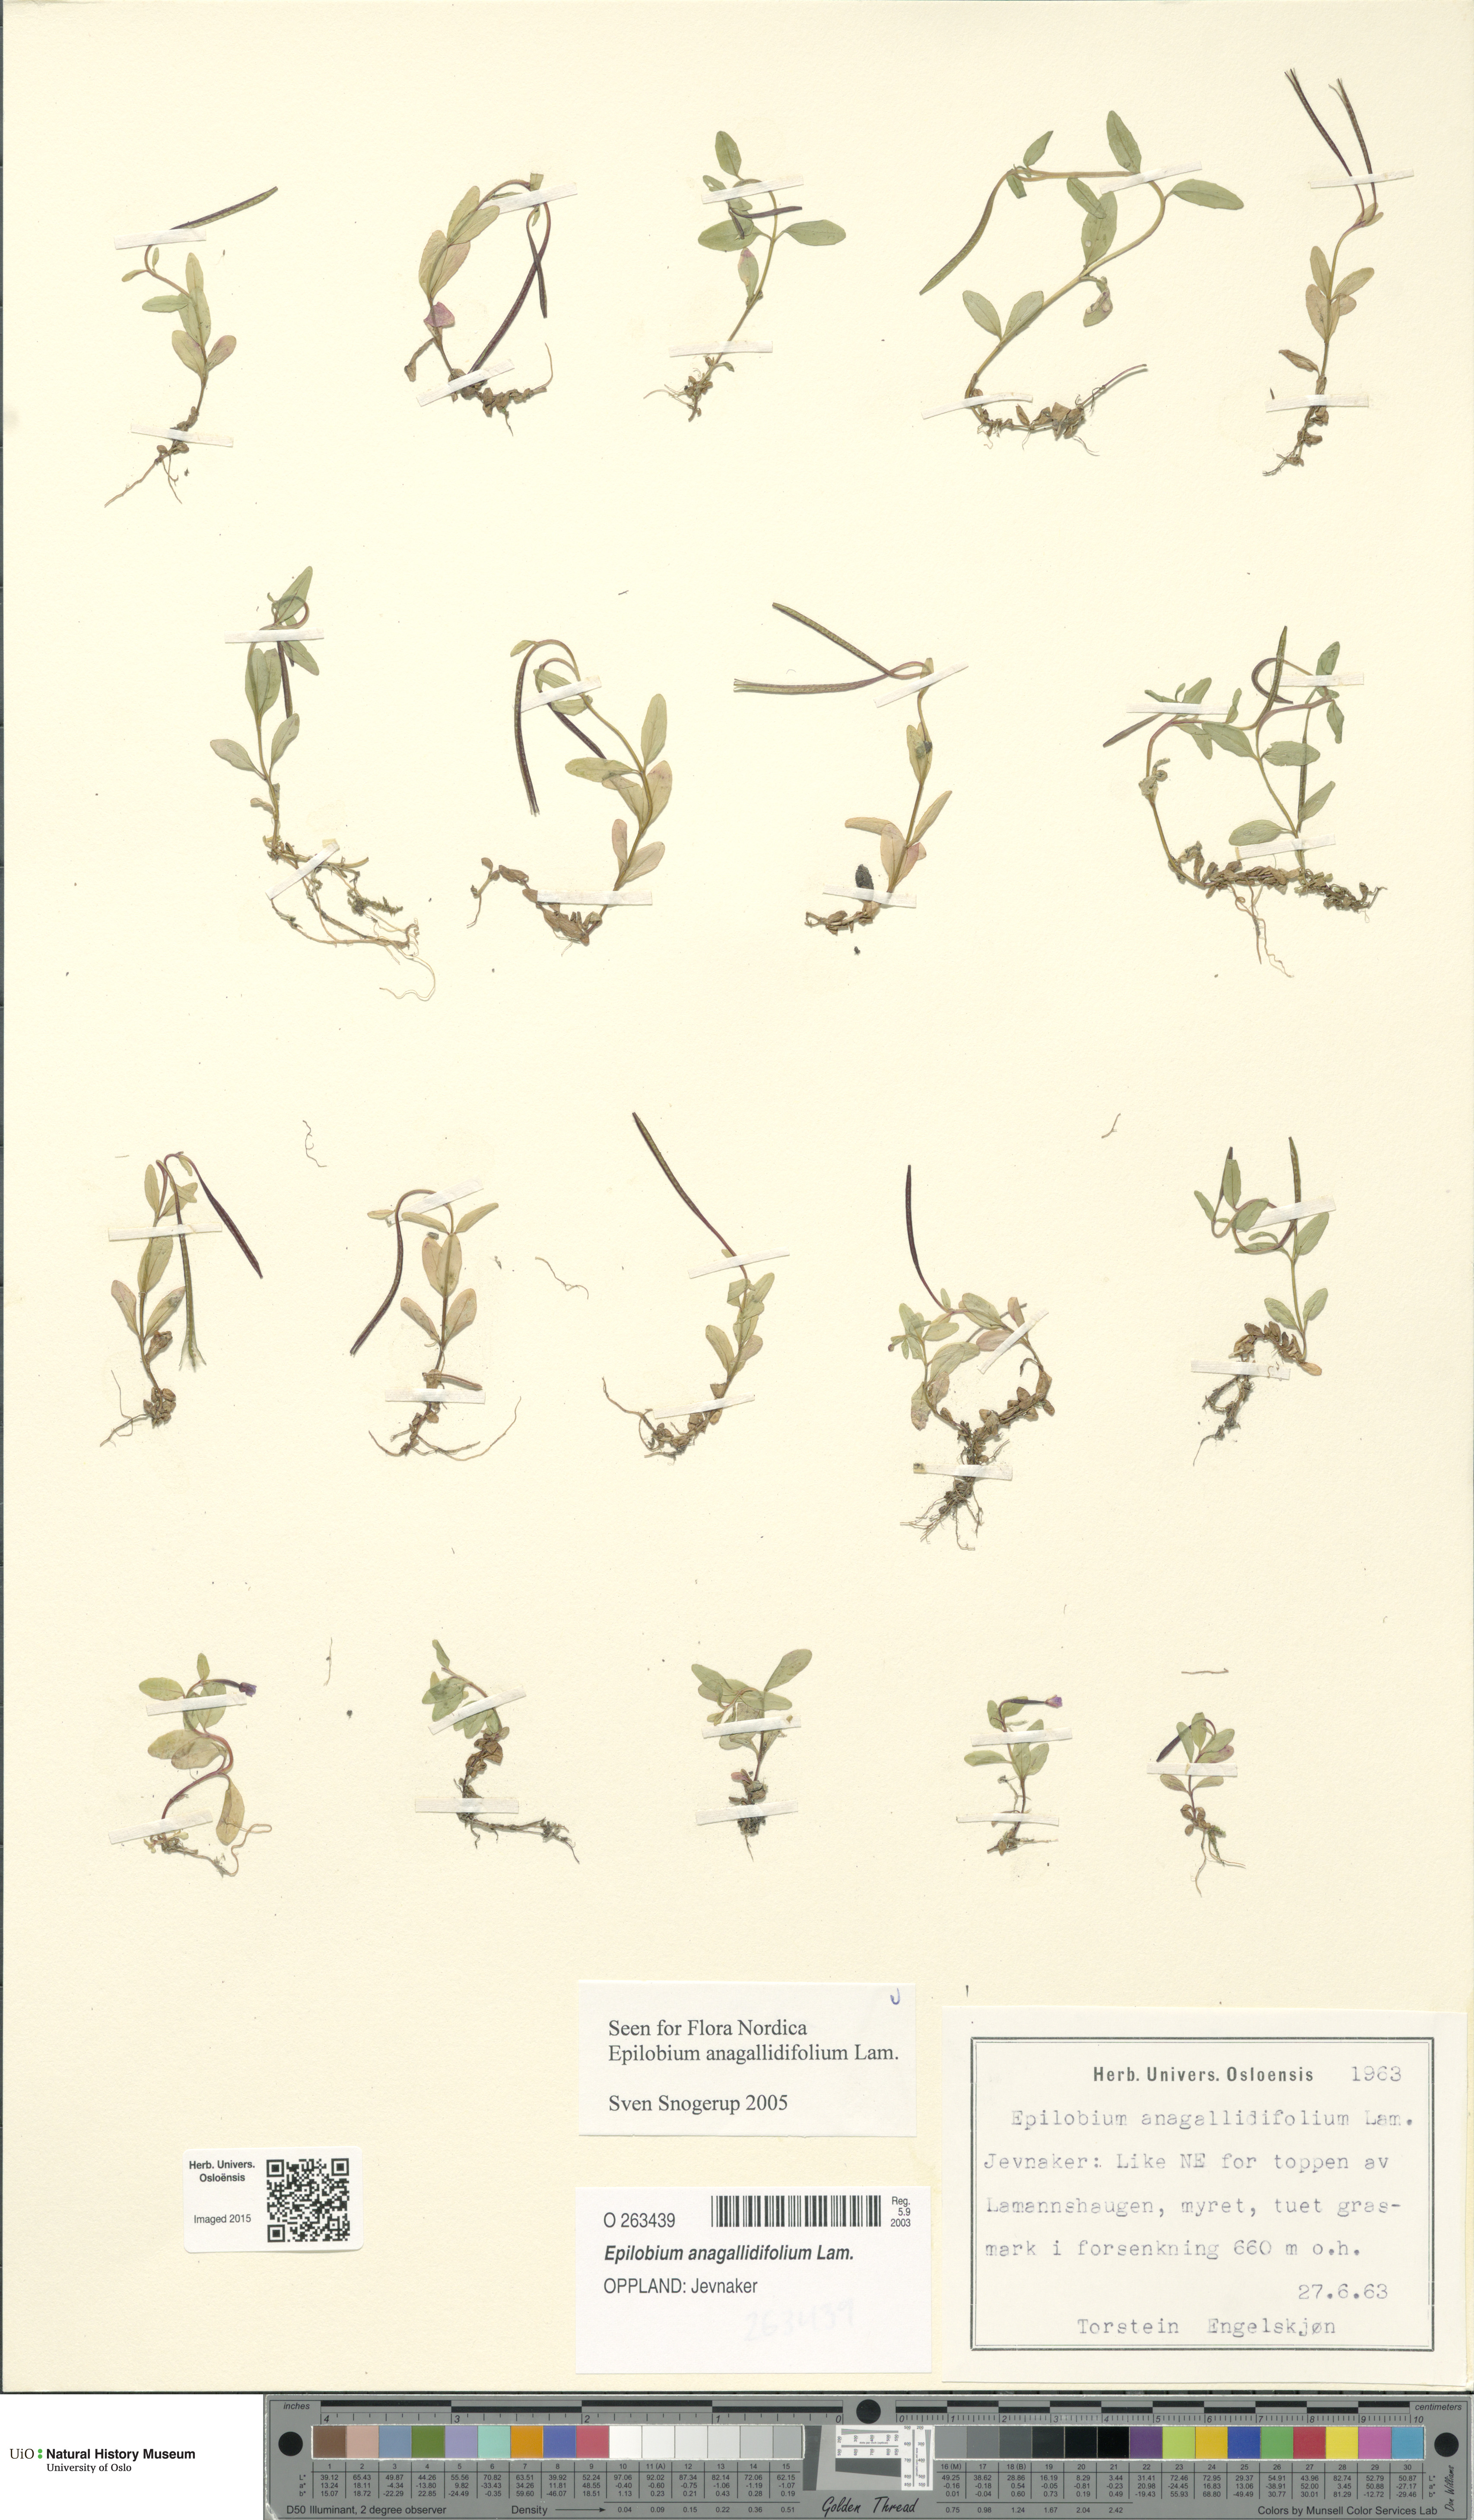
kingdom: Plantae
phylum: Tracheophyta
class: Magnoliopsida
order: Myrtales
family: Onagraceae
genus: Epilobium
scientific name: Epilobium anagallidifolium
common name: Alpine willowherb
